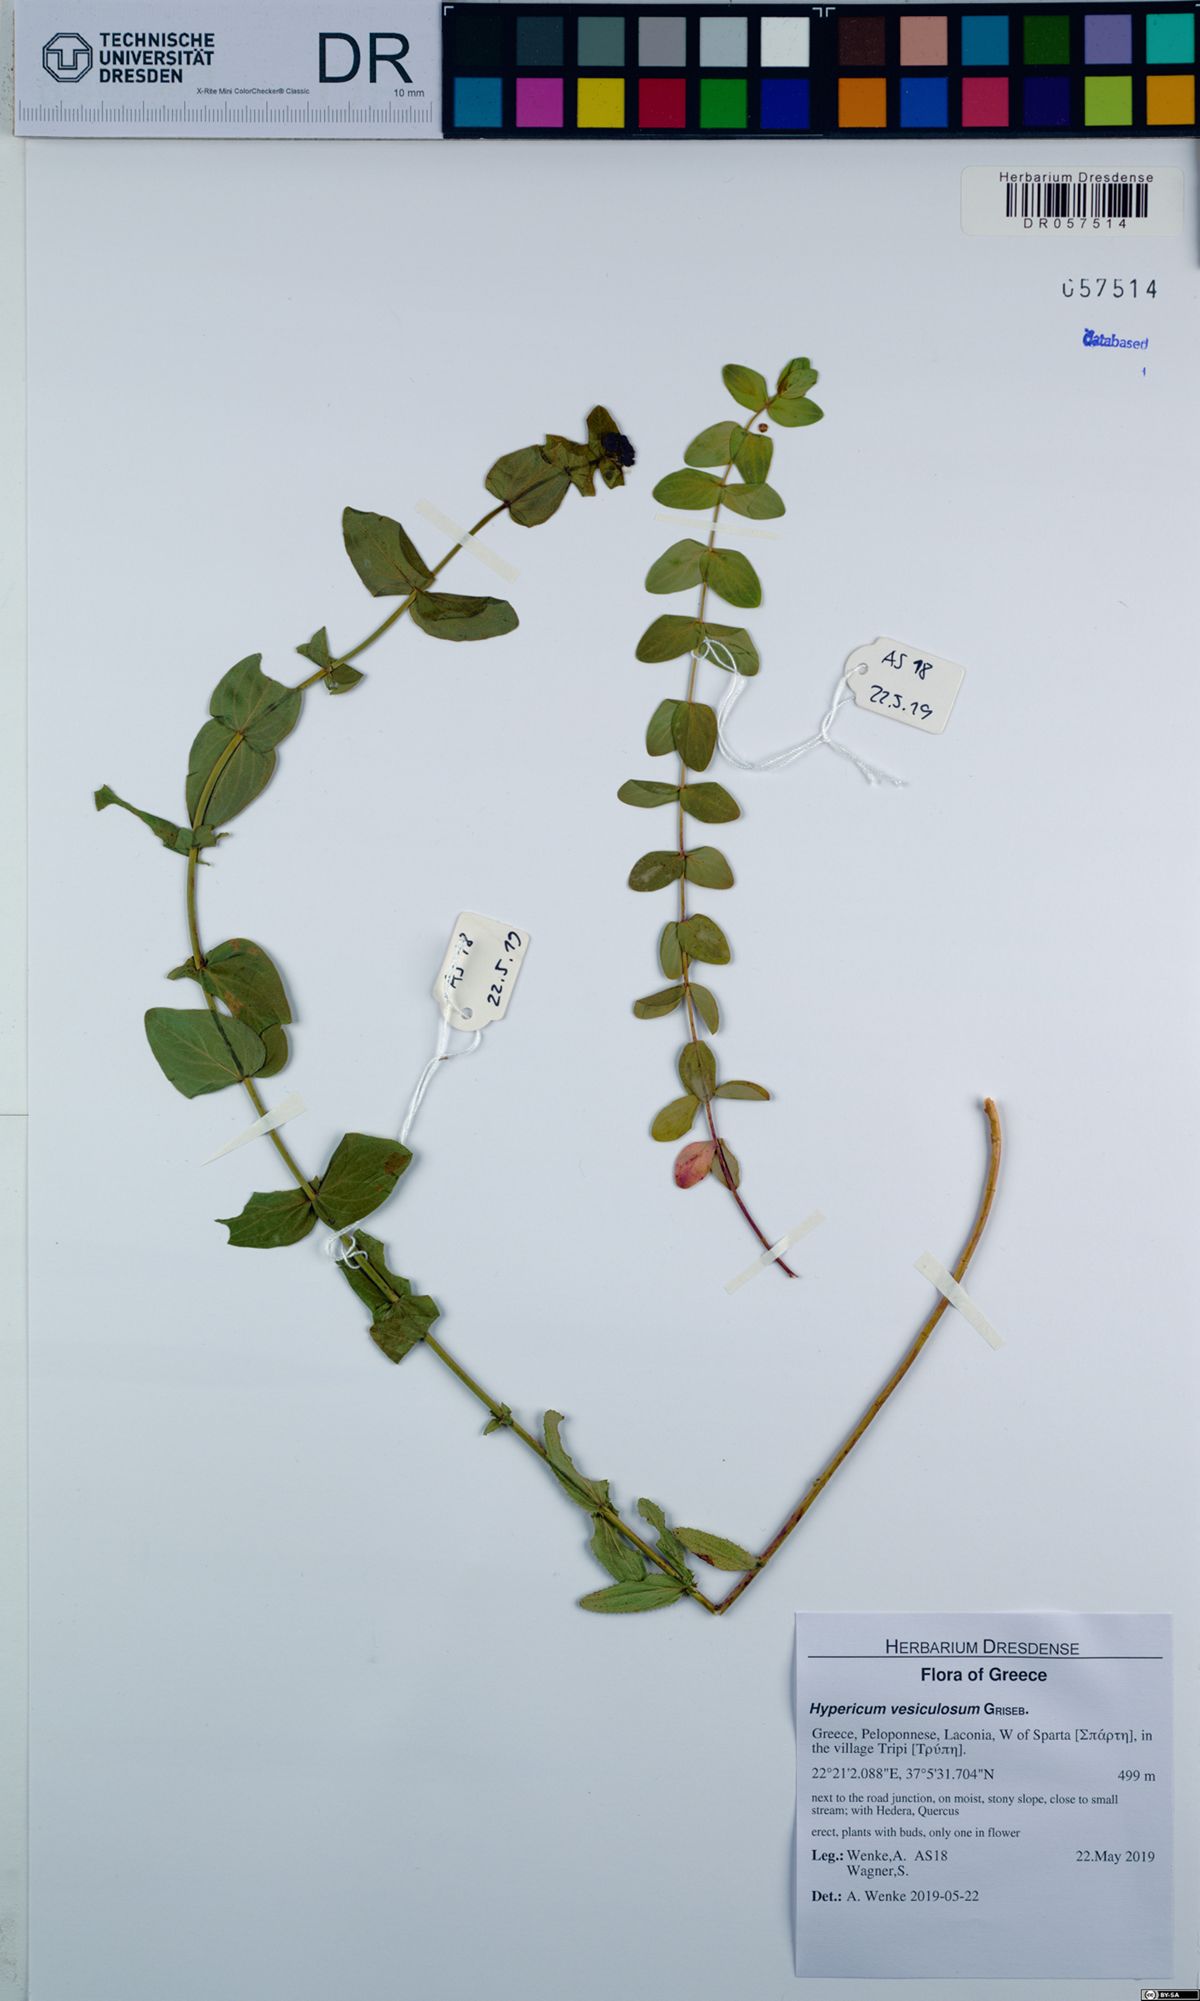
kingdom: Plantae
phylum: Tracheophyta
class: Magnoliopsida
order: Malpighiales
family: Hypericaceae
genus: Hypericum
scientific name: Hypericum vesiculosum
